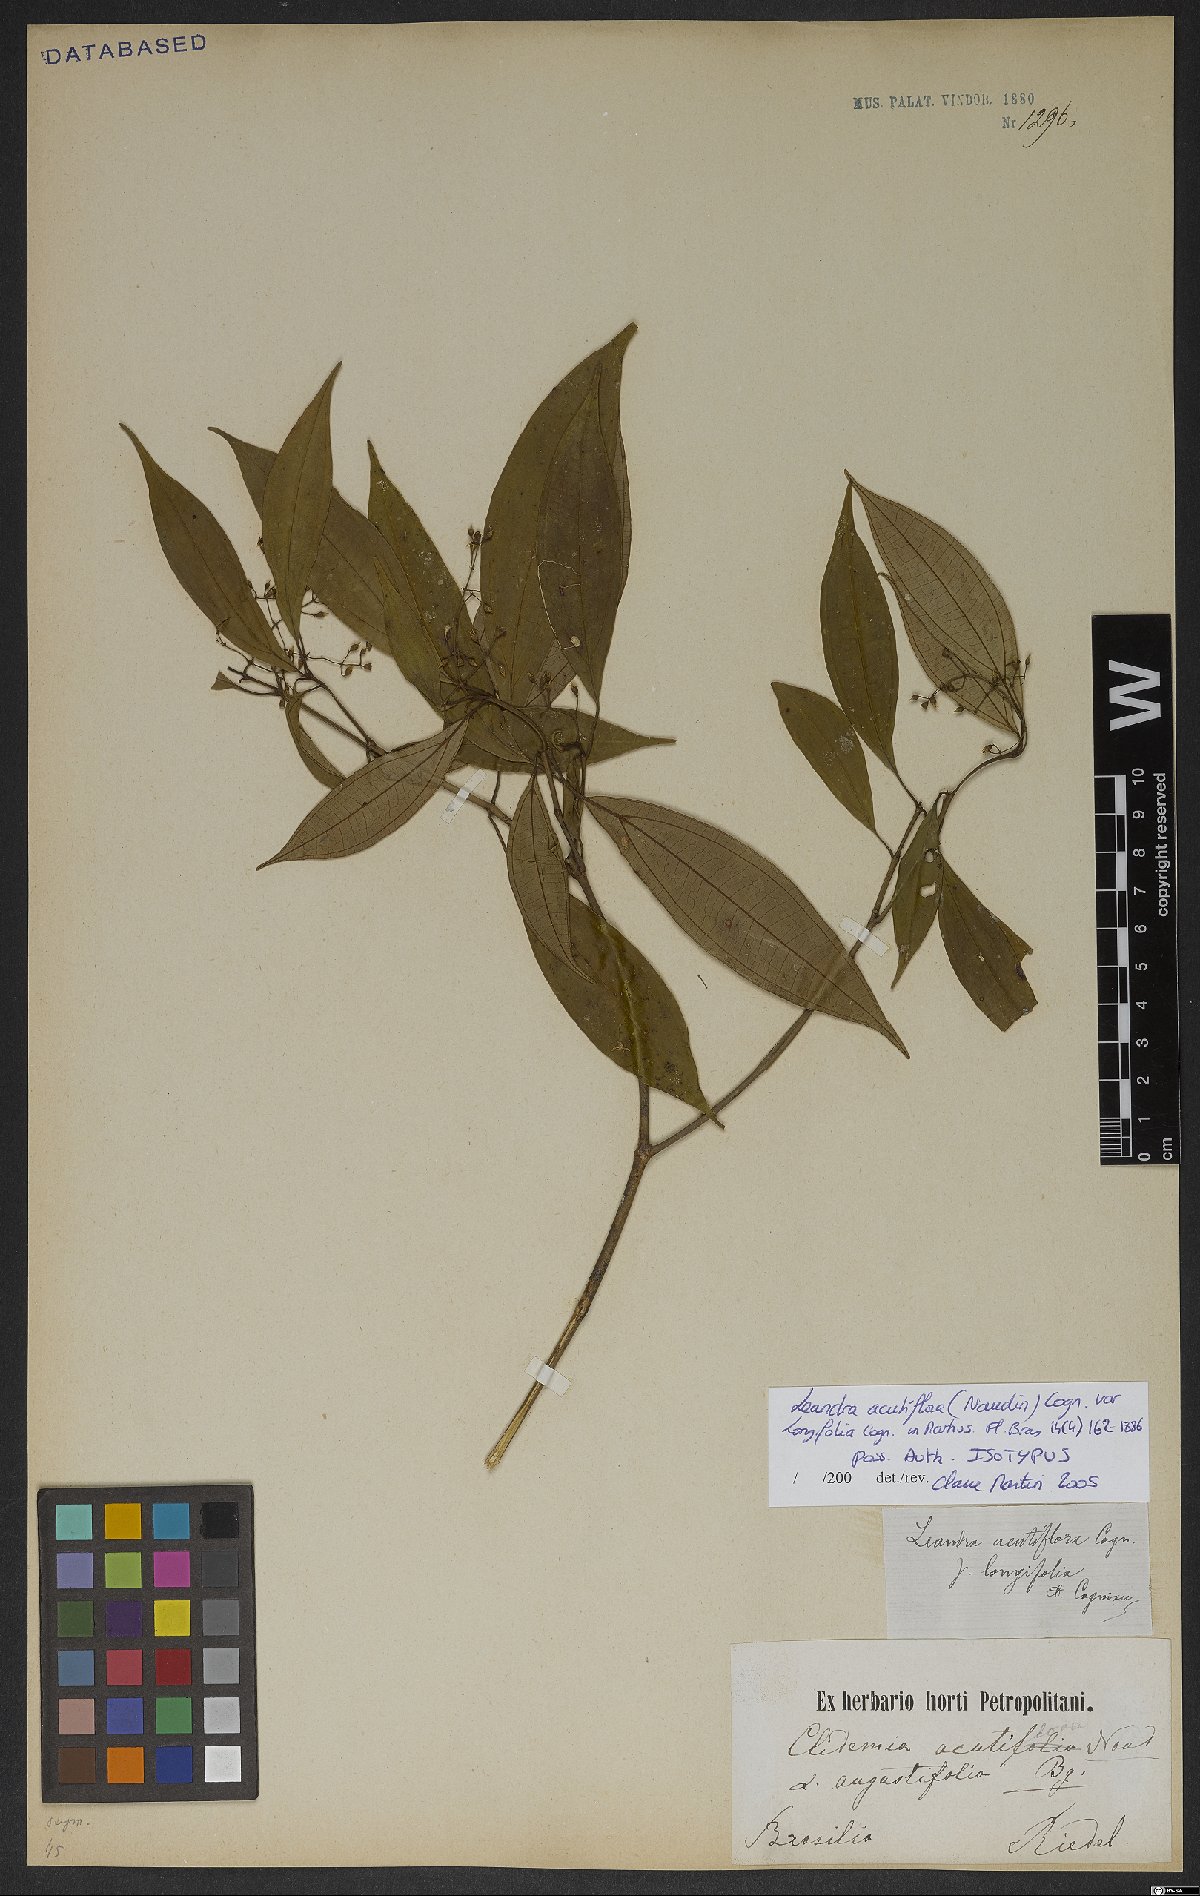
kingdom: Plantae
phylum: Tracheophyta
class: Magnoliopsida
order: Myrtales
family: Melastomataceae
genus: Miconia
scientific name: Miconia acutiflora
